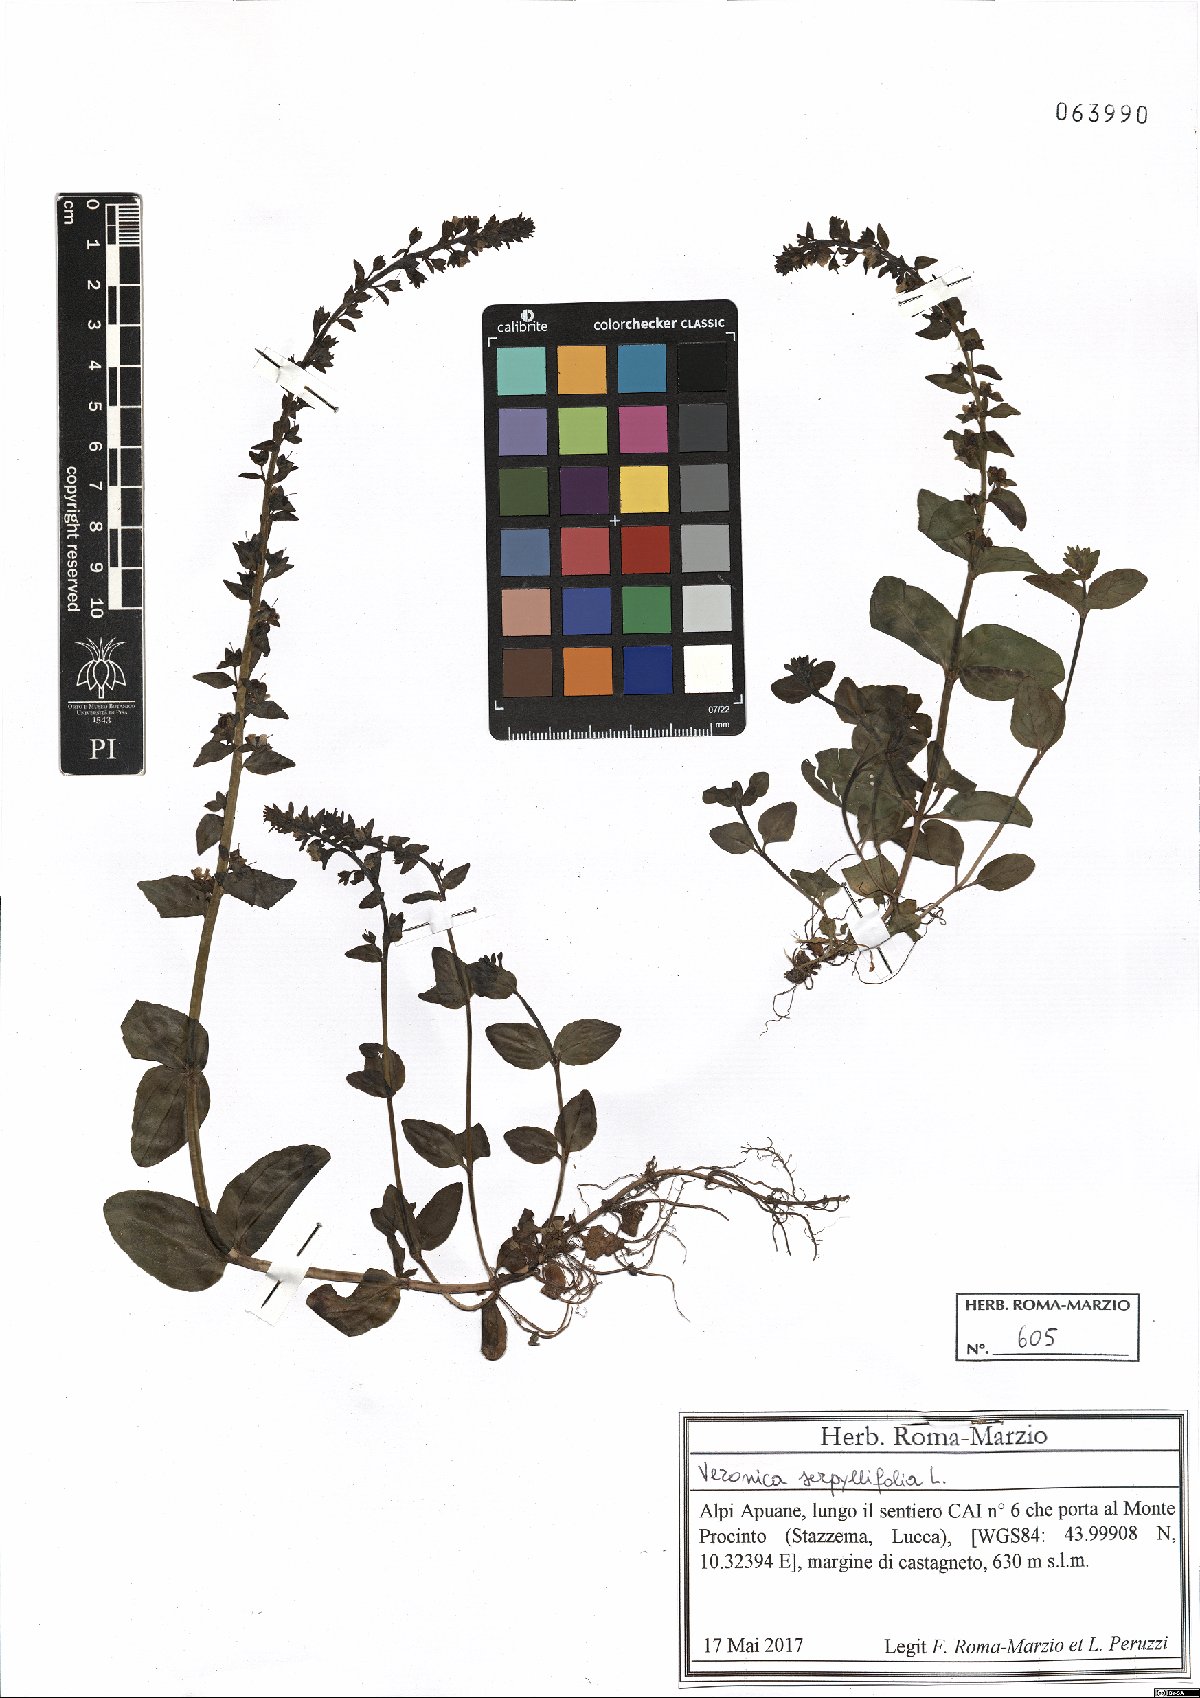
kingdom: Plantae
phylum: Tracheophyta
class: Magnoliopsida
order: Lamiales
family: Plantaginaceae
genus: Veronica
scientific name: Veronica serpyllifolia
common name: Thyme-leaved speedwell
